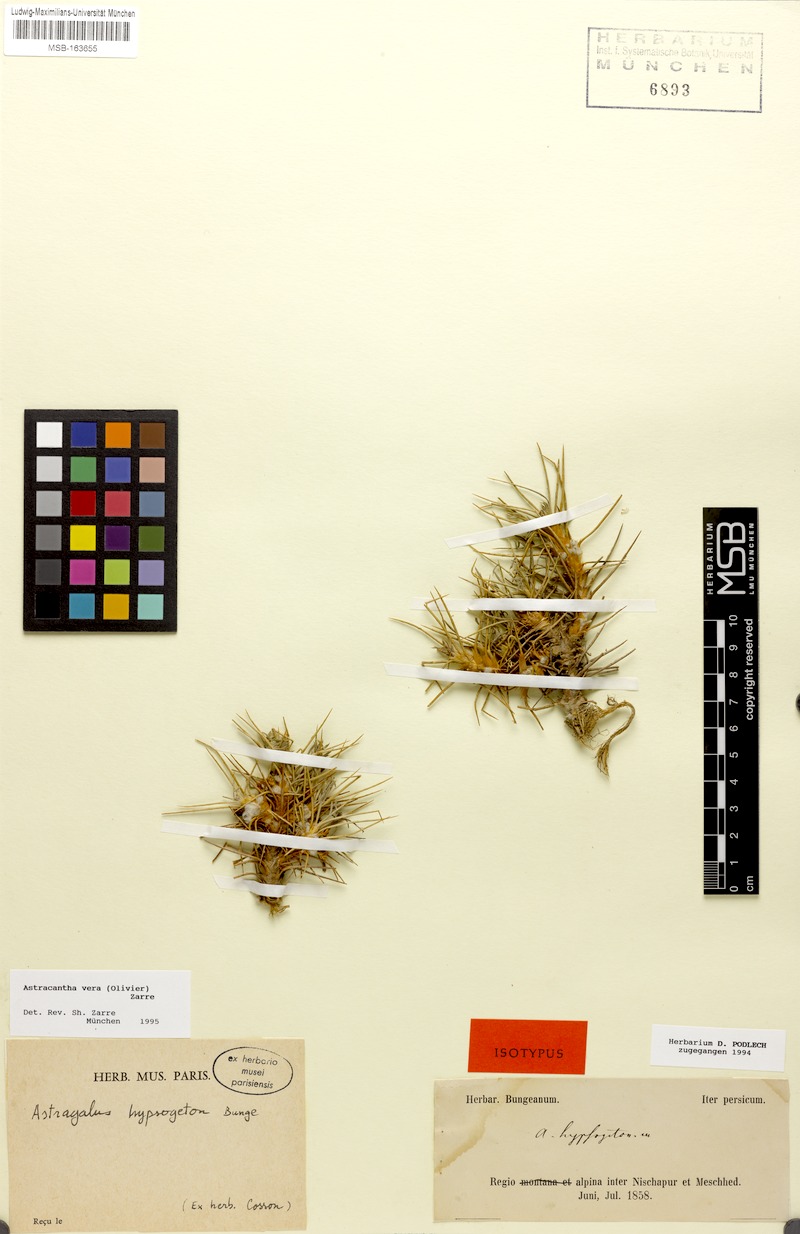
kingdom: Plantae
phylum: Tracheophyta
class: Magnoliopsida
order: Fabales
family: Fabaceae
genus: Astragalus
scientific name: Astragalus verus
